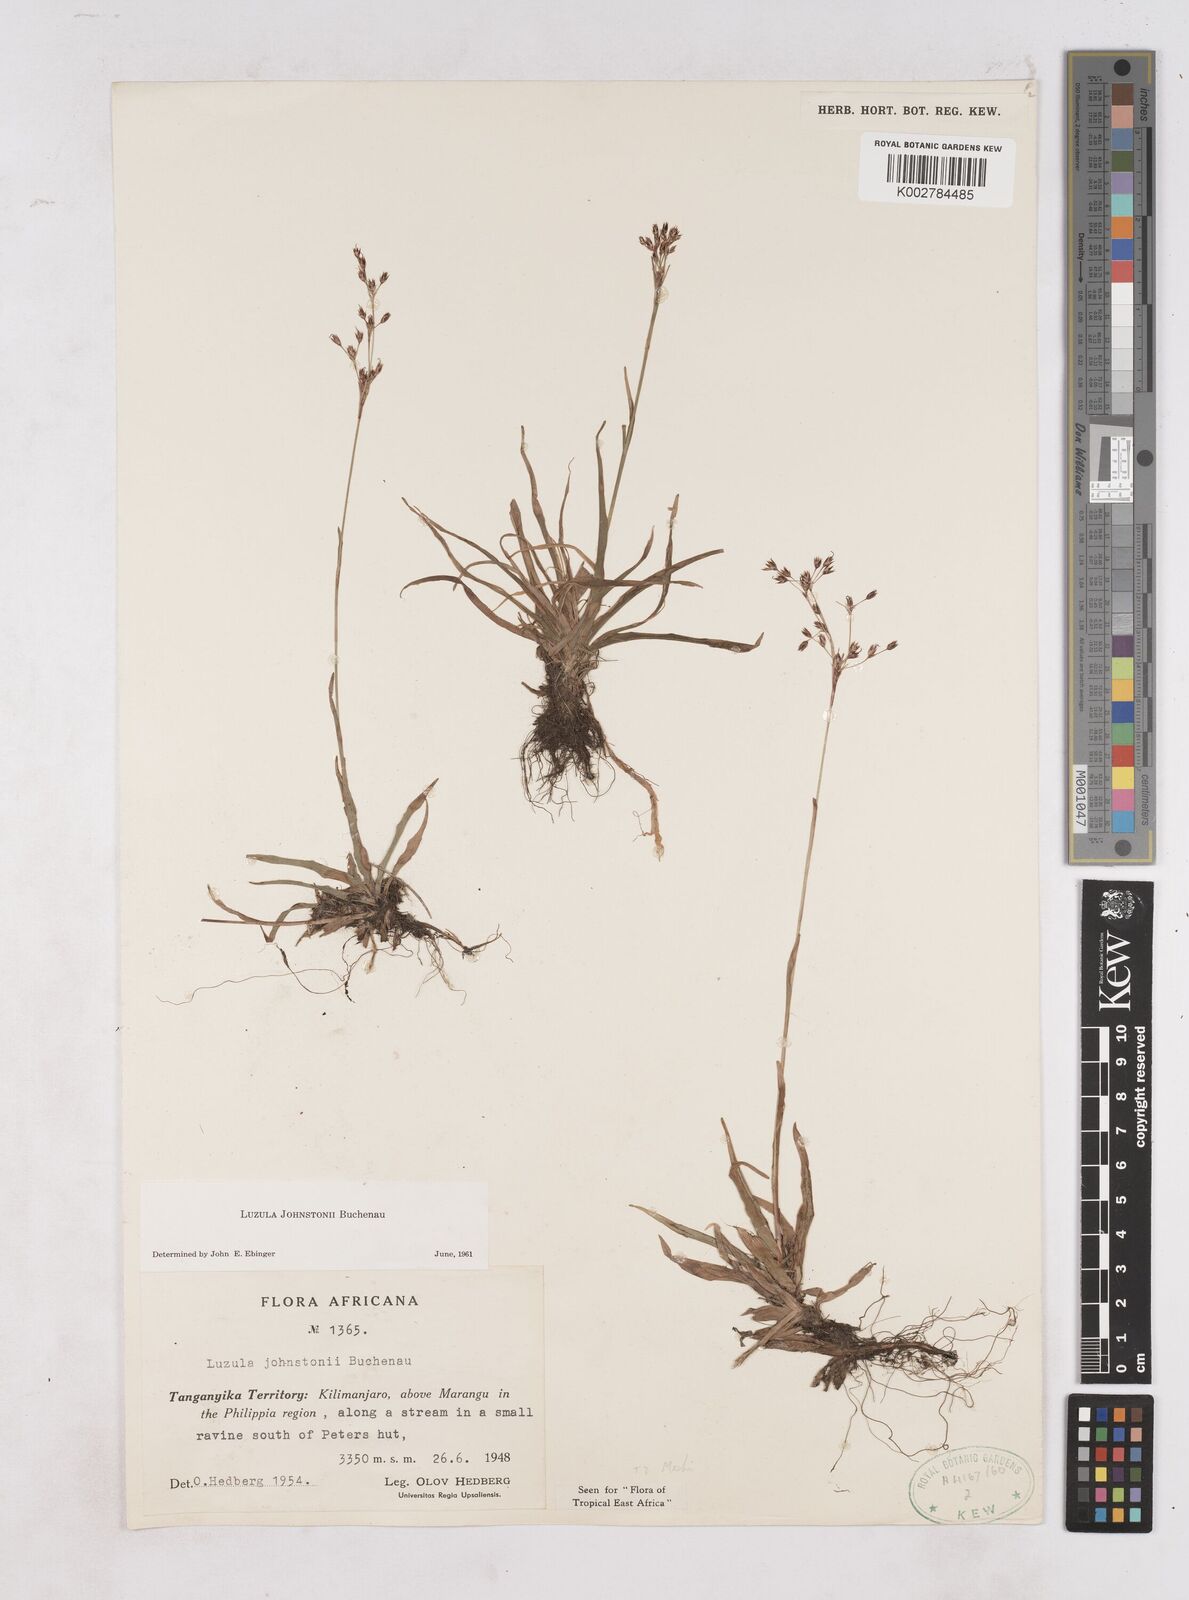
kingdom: Plantae
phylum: Tracheophyta
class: Liliopsida
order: Poales
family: Juncaceae
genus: Luzula
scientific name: Luzula johnstonii
